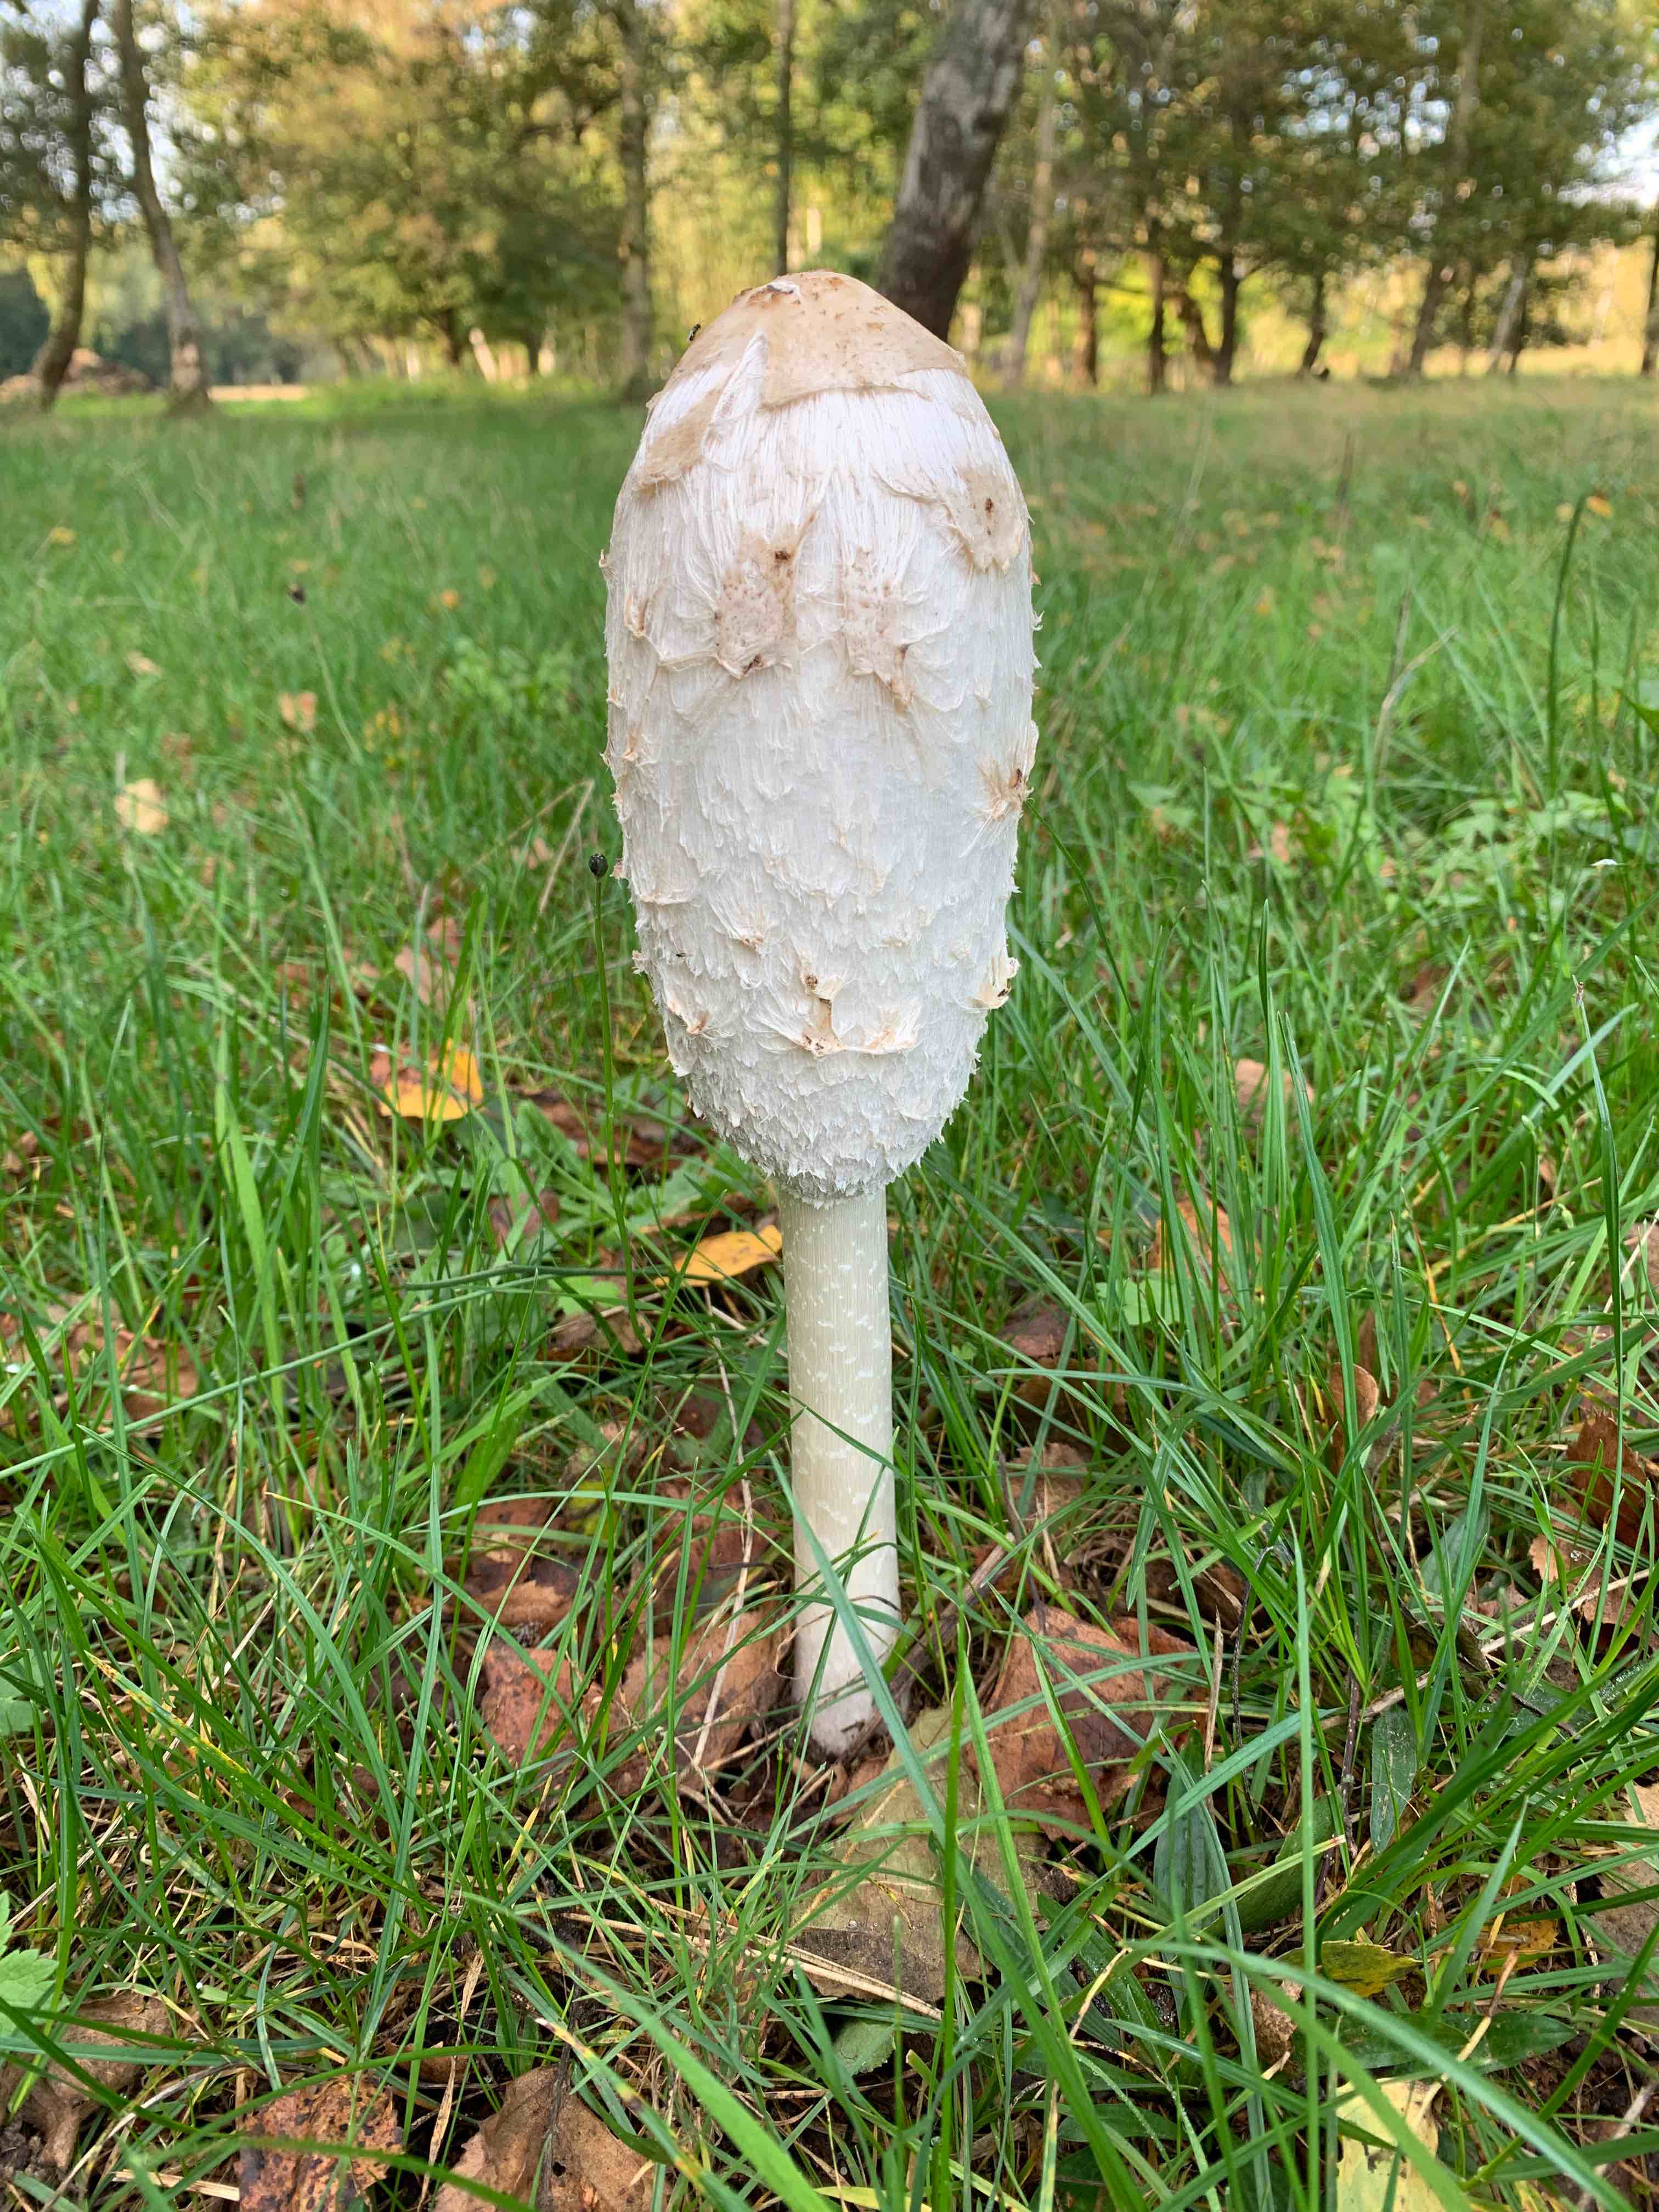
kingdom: Fungi
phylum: Basidiomycota
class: Agaricomycetes
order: Agaricales
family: Agaricaceae
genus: Coprinus
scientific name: Coprinus comatus
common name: stor parykhat
